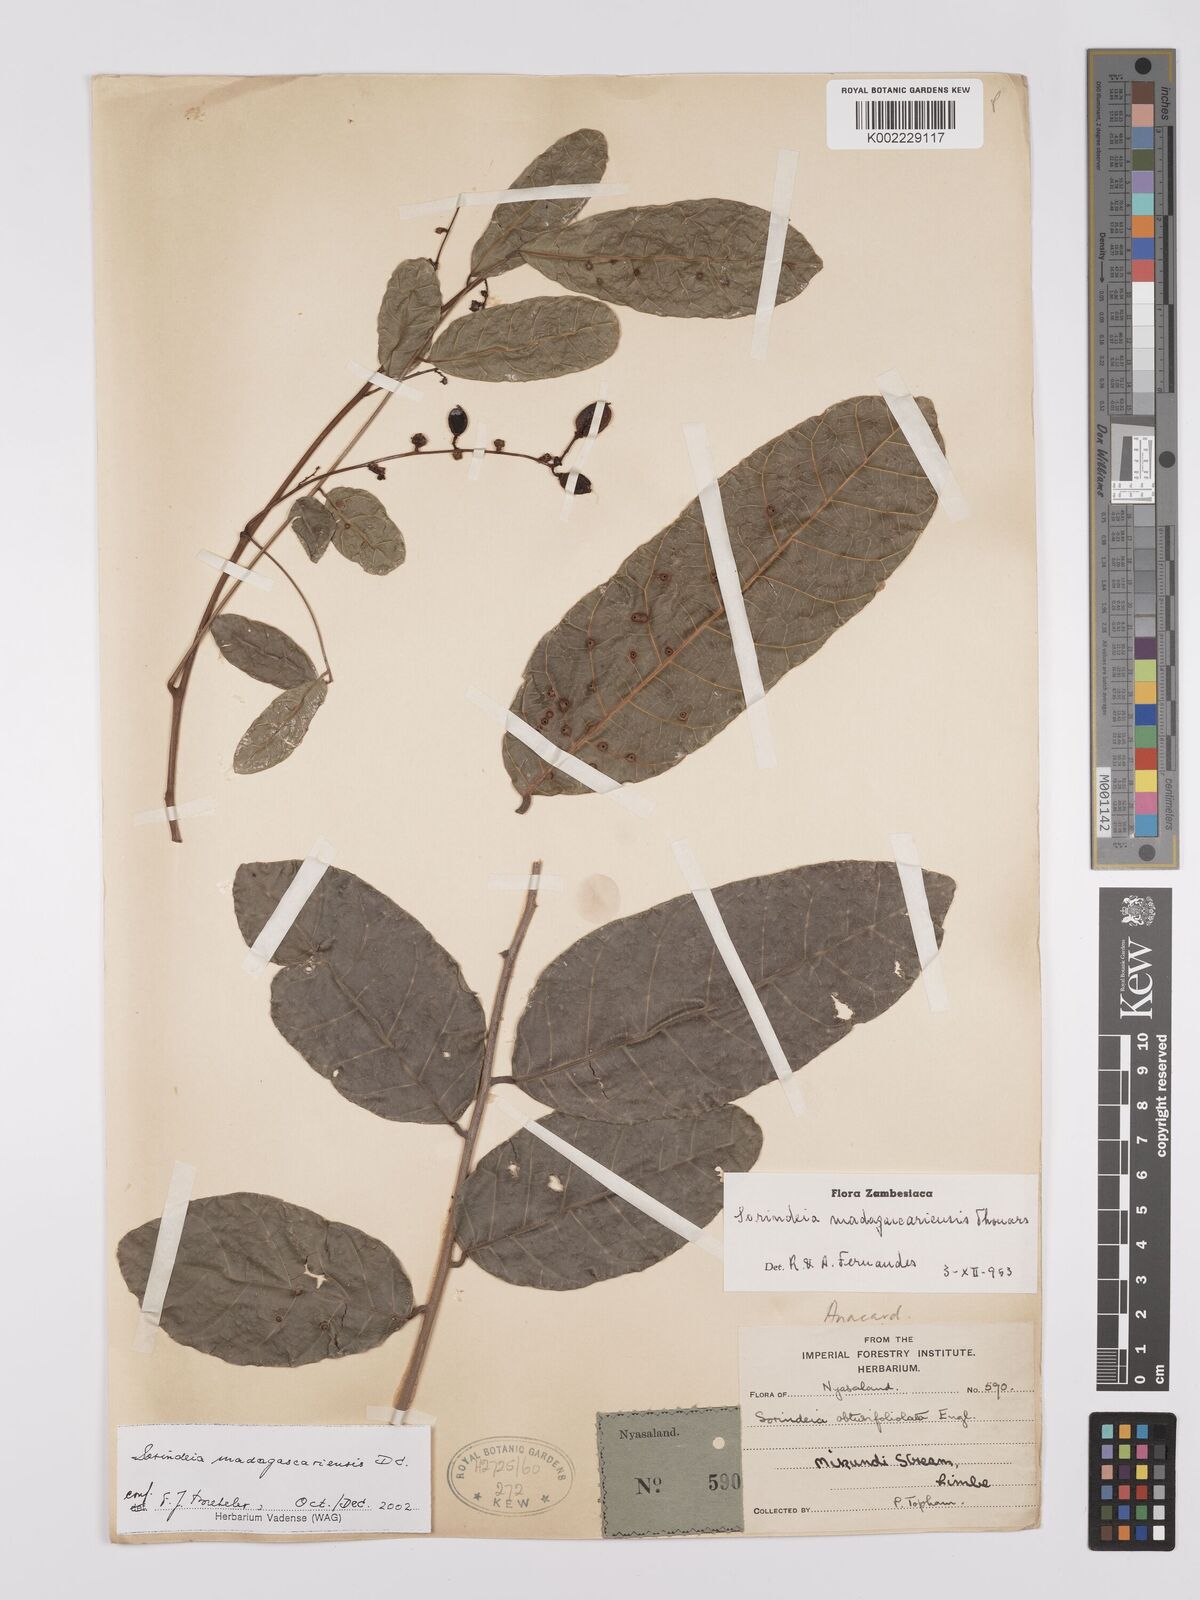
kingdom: Plantae
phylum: Tracheophyta
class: Magnoliopsida
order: Sapindales
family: Anacardiaceae
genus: Sorindeia
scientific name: Sorindeia madagascariensis
